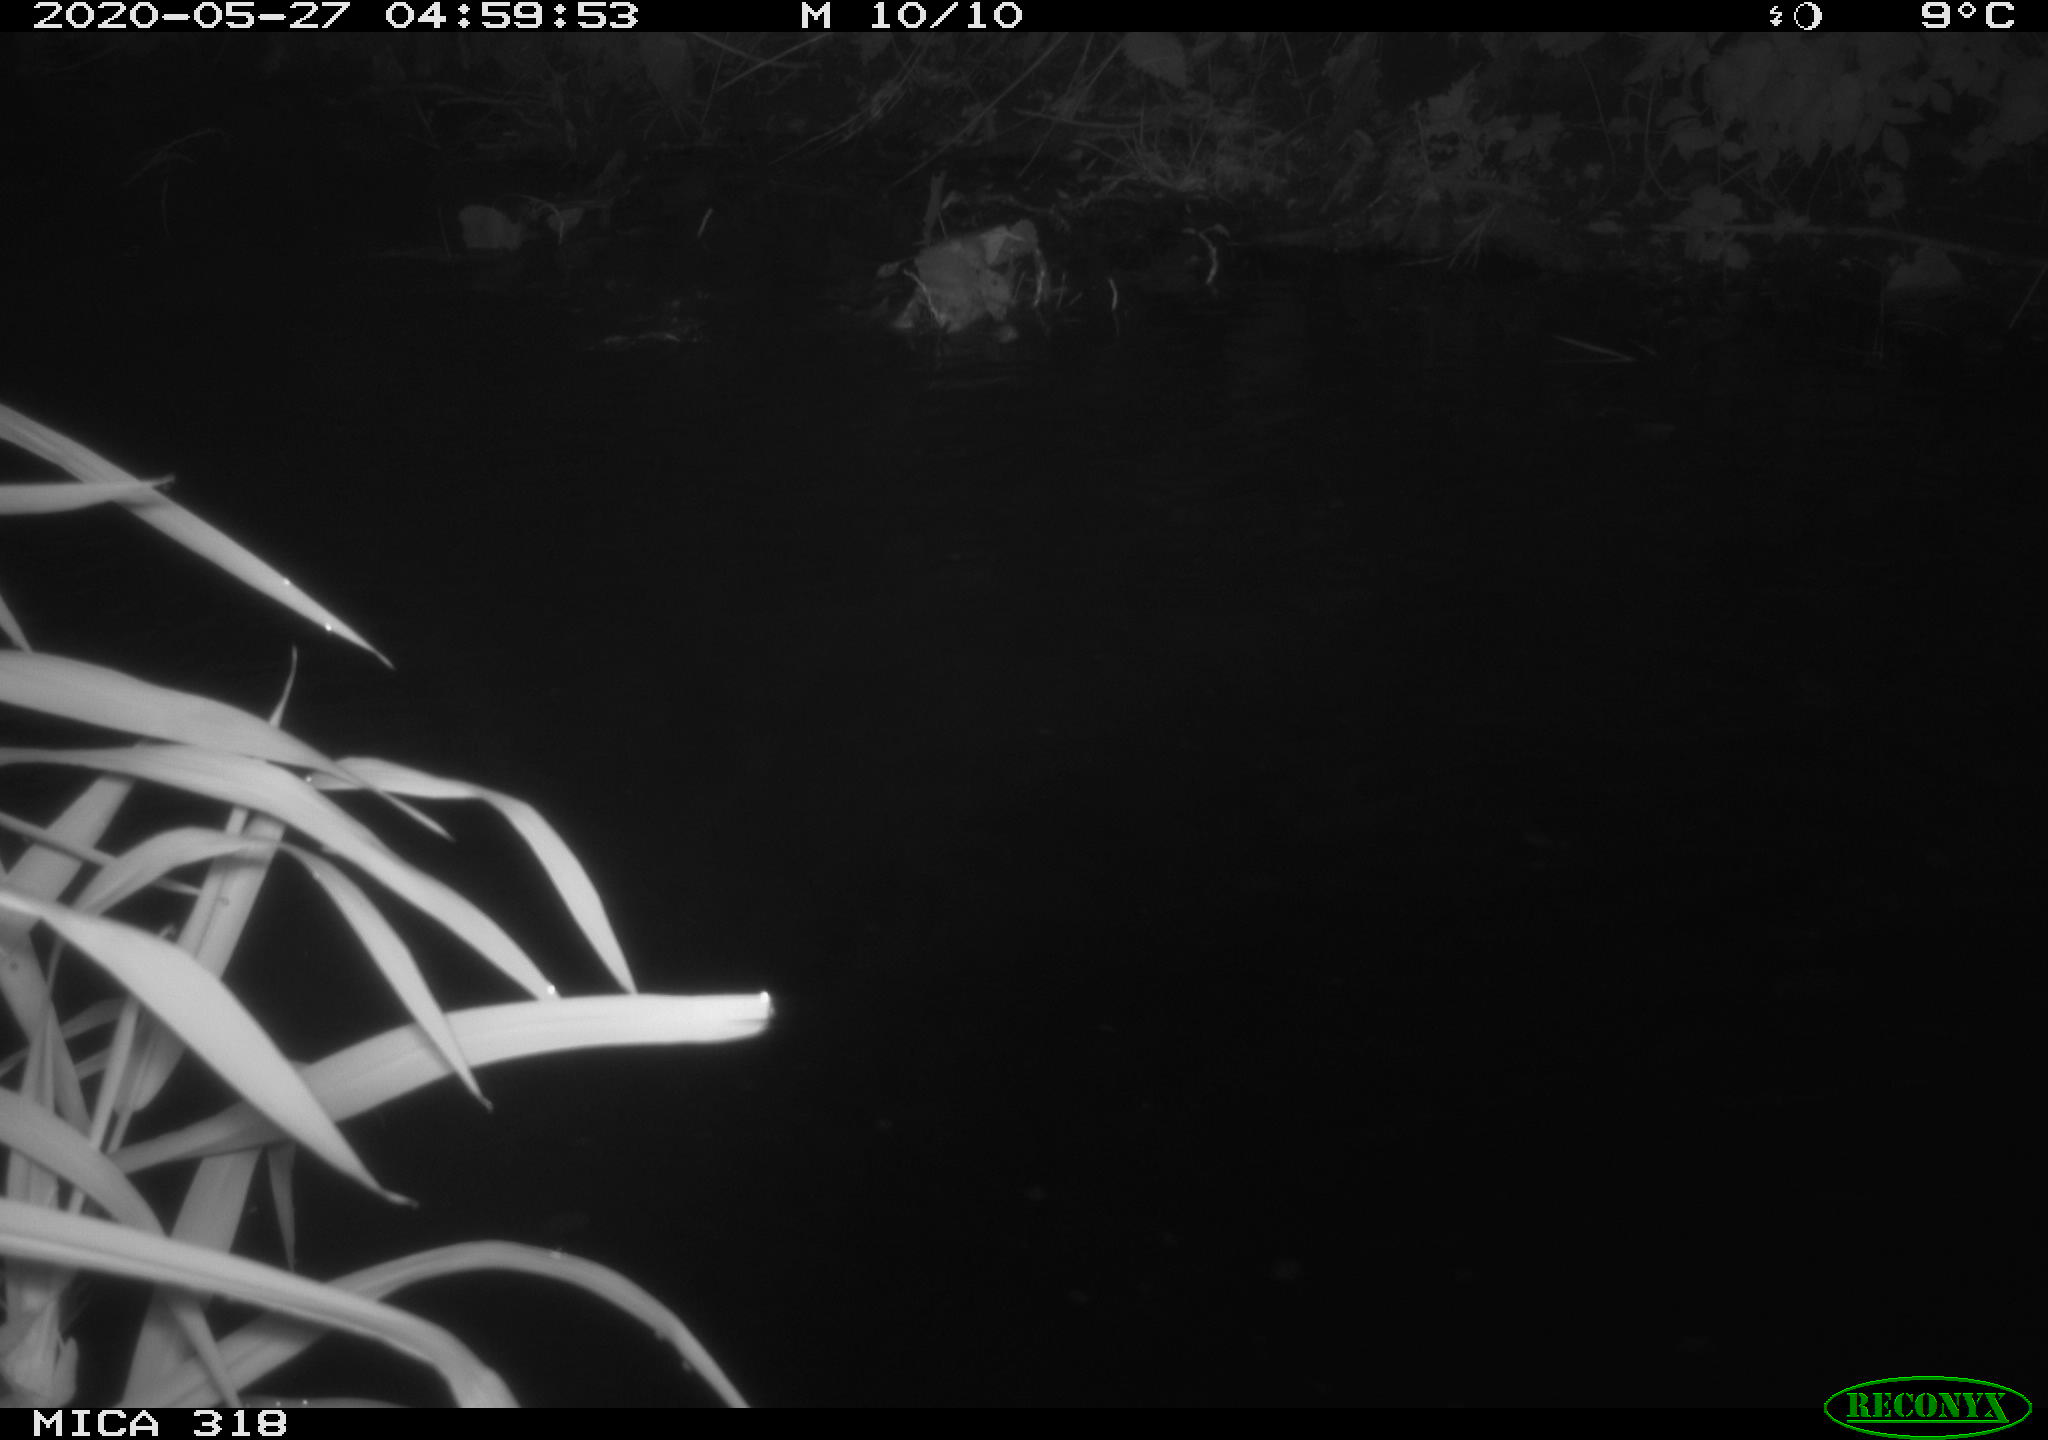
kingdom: Animalia
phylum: Chordata
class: Aves
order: Pelecaniformes
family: Ardeidae
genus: Ardea
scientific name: Ardea cinerea
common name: Grey heron
